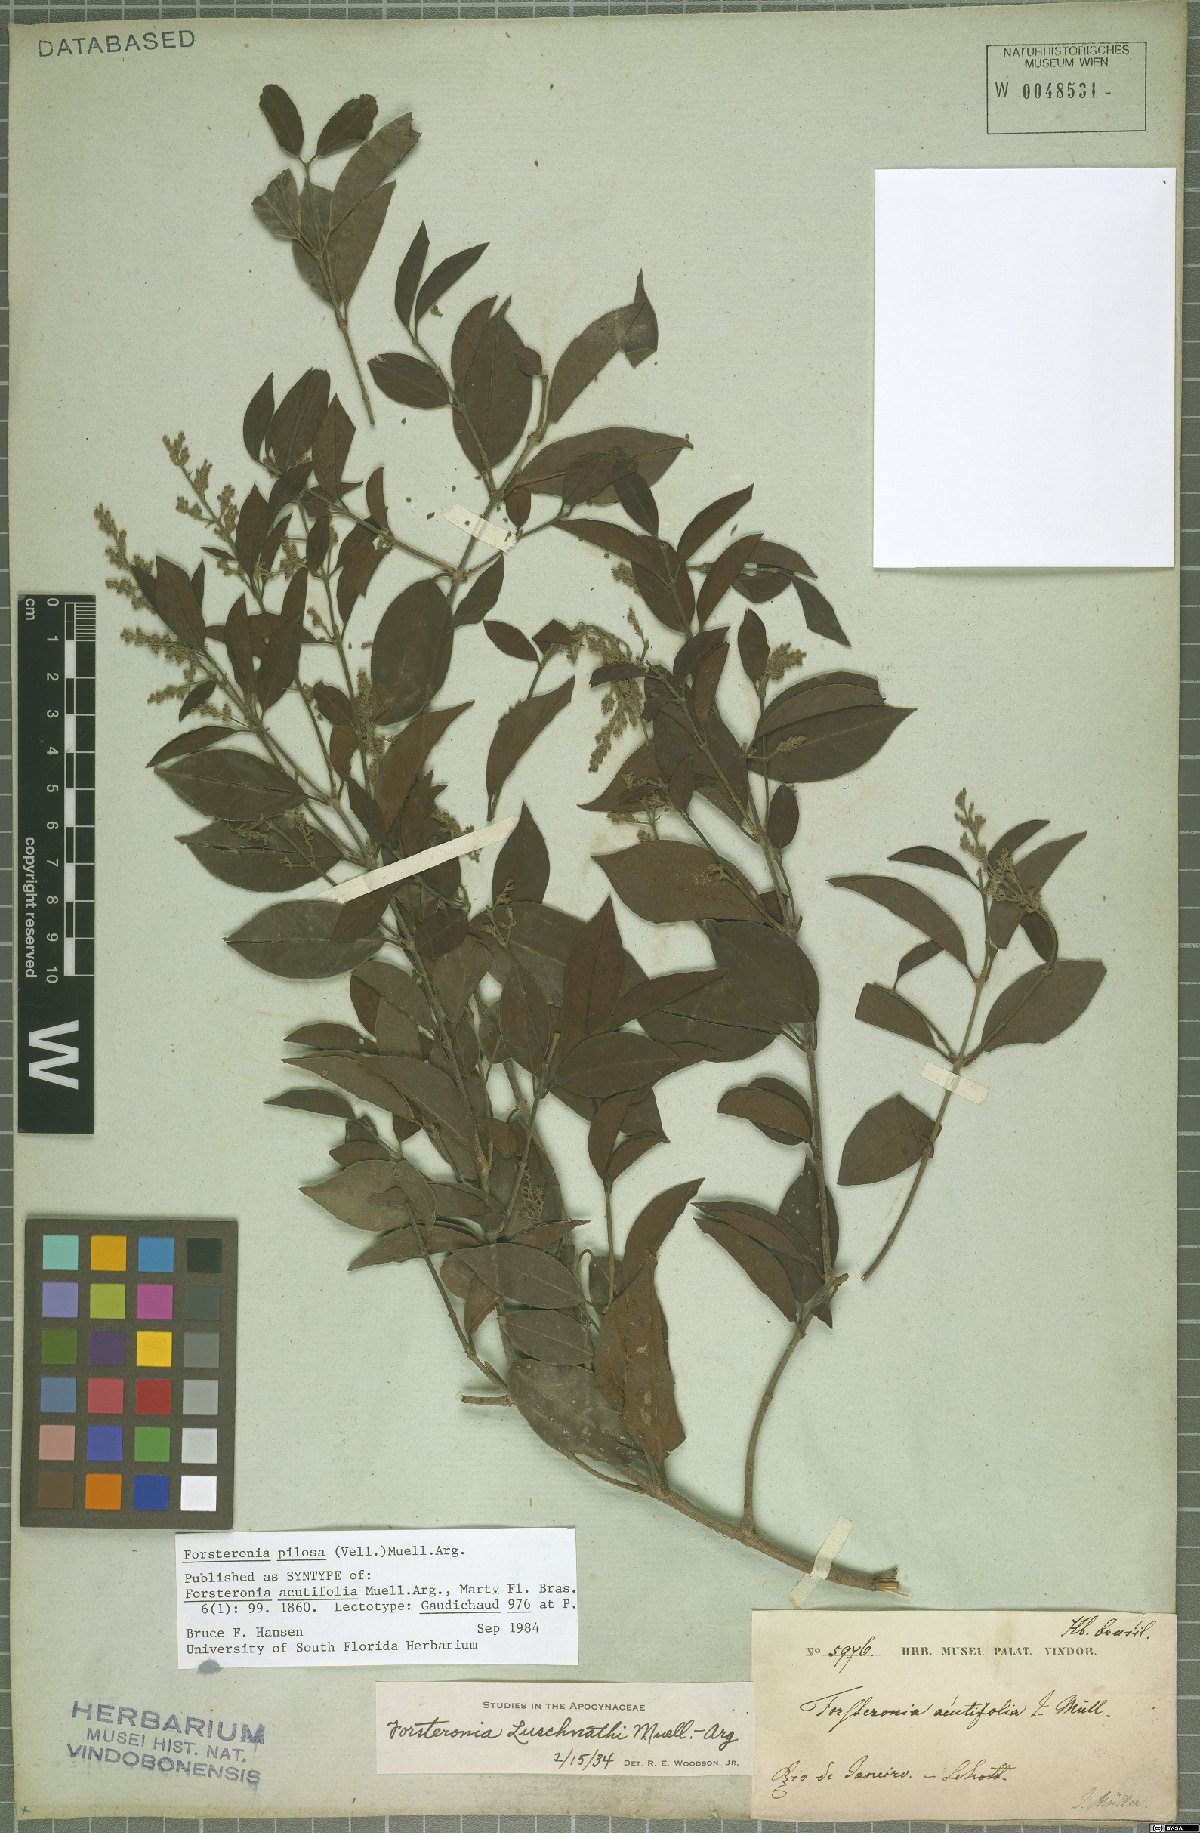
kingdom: Plantae
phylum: Tracheophyta
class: Magnoliopsida
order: Gentianales
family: Apocynaceae
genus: Forsteronia
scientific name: Forsteronia pilosa
